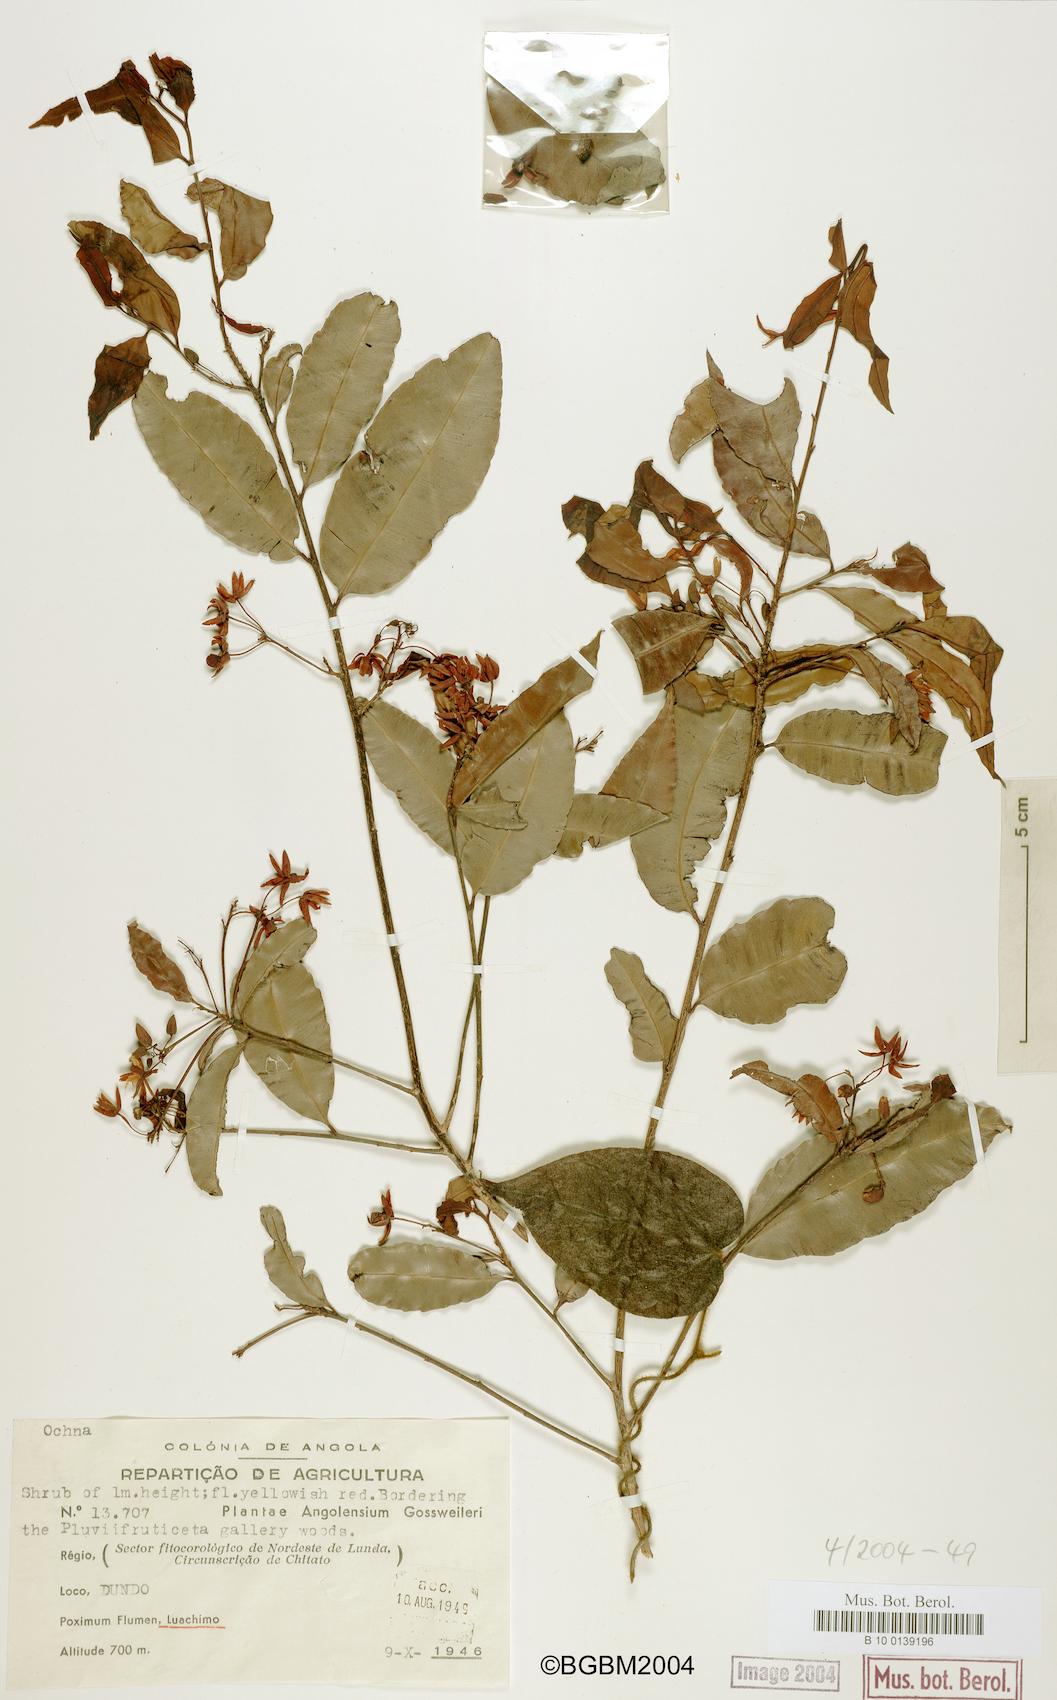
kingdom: Plantae
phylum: Tracheophyta
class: Magnoliopsida
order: Malpighiales
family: Ochnaceae
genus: Ochna
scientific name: Ochna
